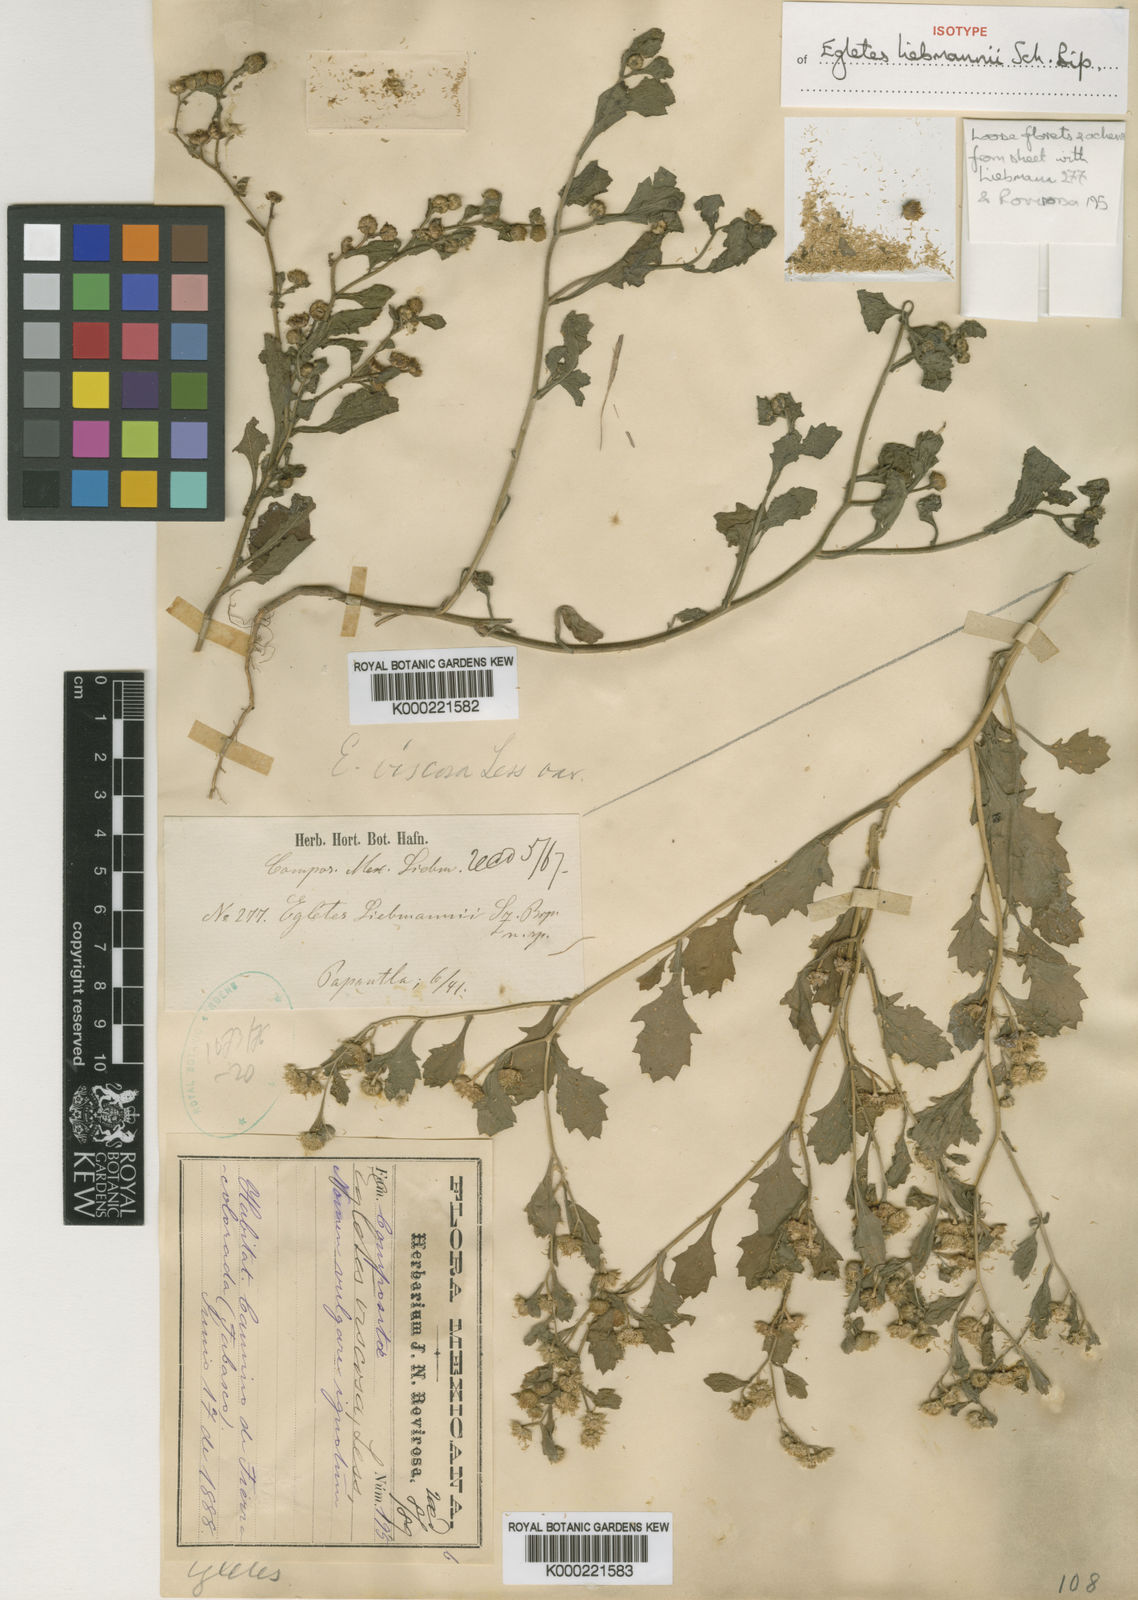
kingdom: Plantae
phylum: Tracheophyta
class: Magnoliopsida
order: Asterales
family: Asteraceae
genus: Egletes
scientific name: Egletes
